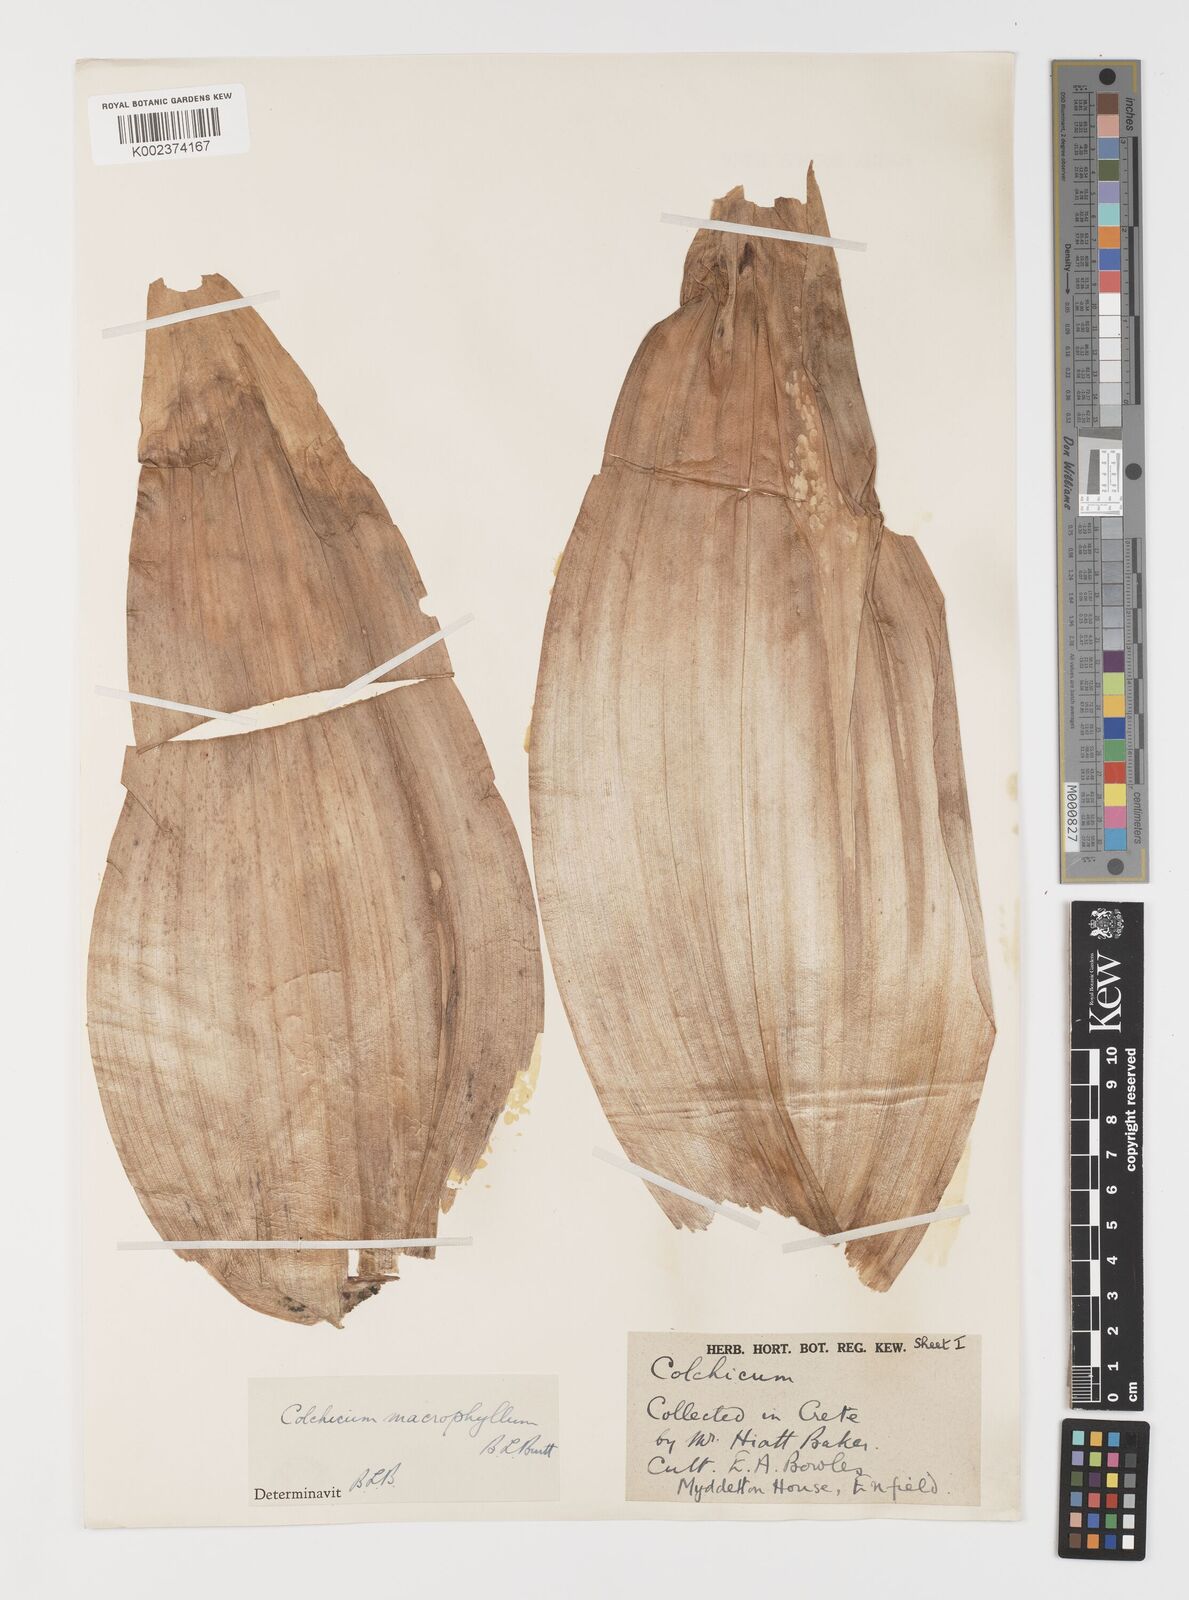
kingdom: Plantae
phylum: Tracheophyta
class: Liliopsida
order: Liliales
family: Colchicaceae
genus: Colchicum
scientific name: Colchicum macrophyllum
